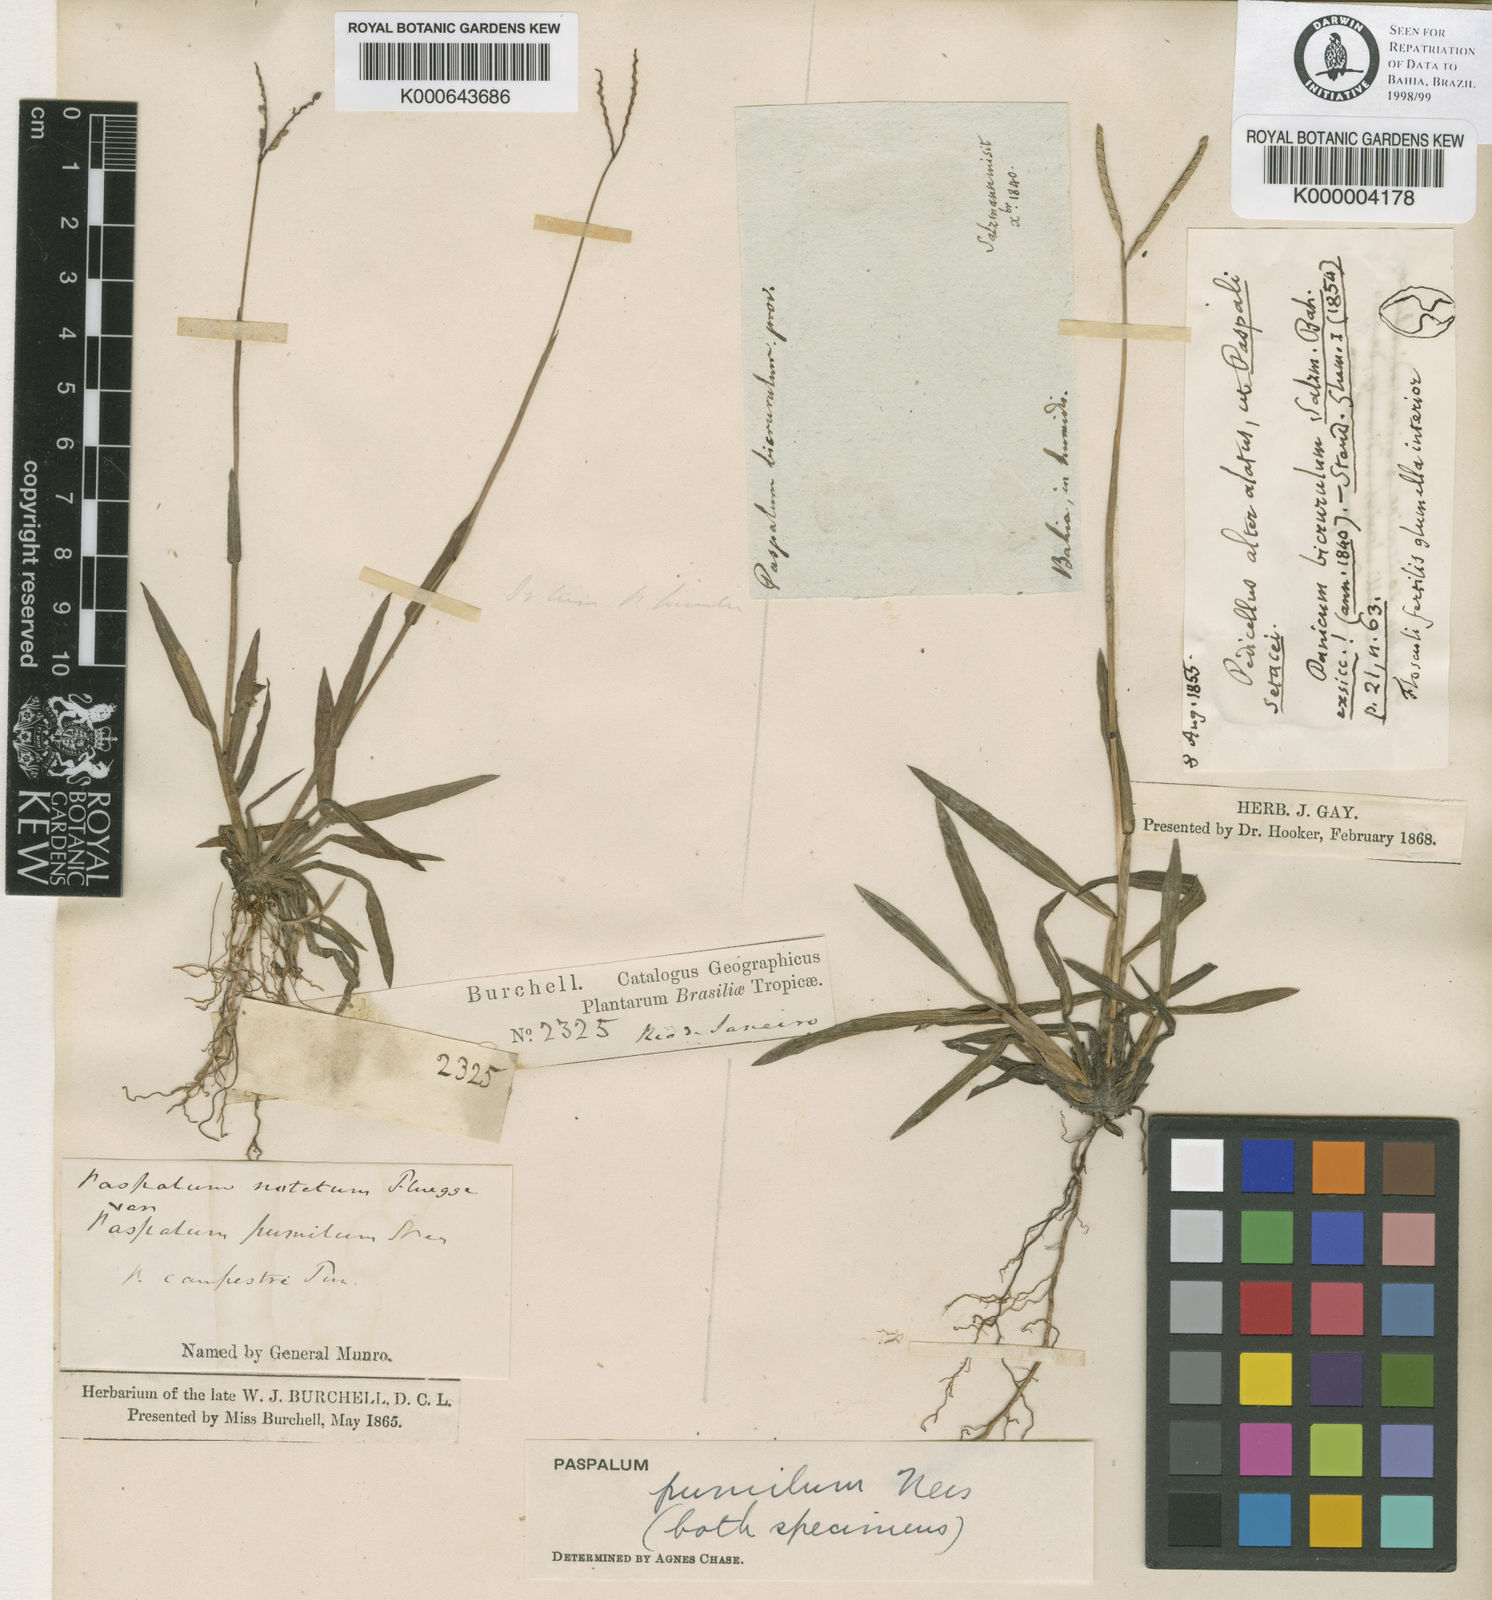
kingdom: Plantae
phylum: Tracheophyta
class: Liliopsida
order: Poales
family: Poaceae
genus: Paspalum
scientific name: Paspalum pumilum
